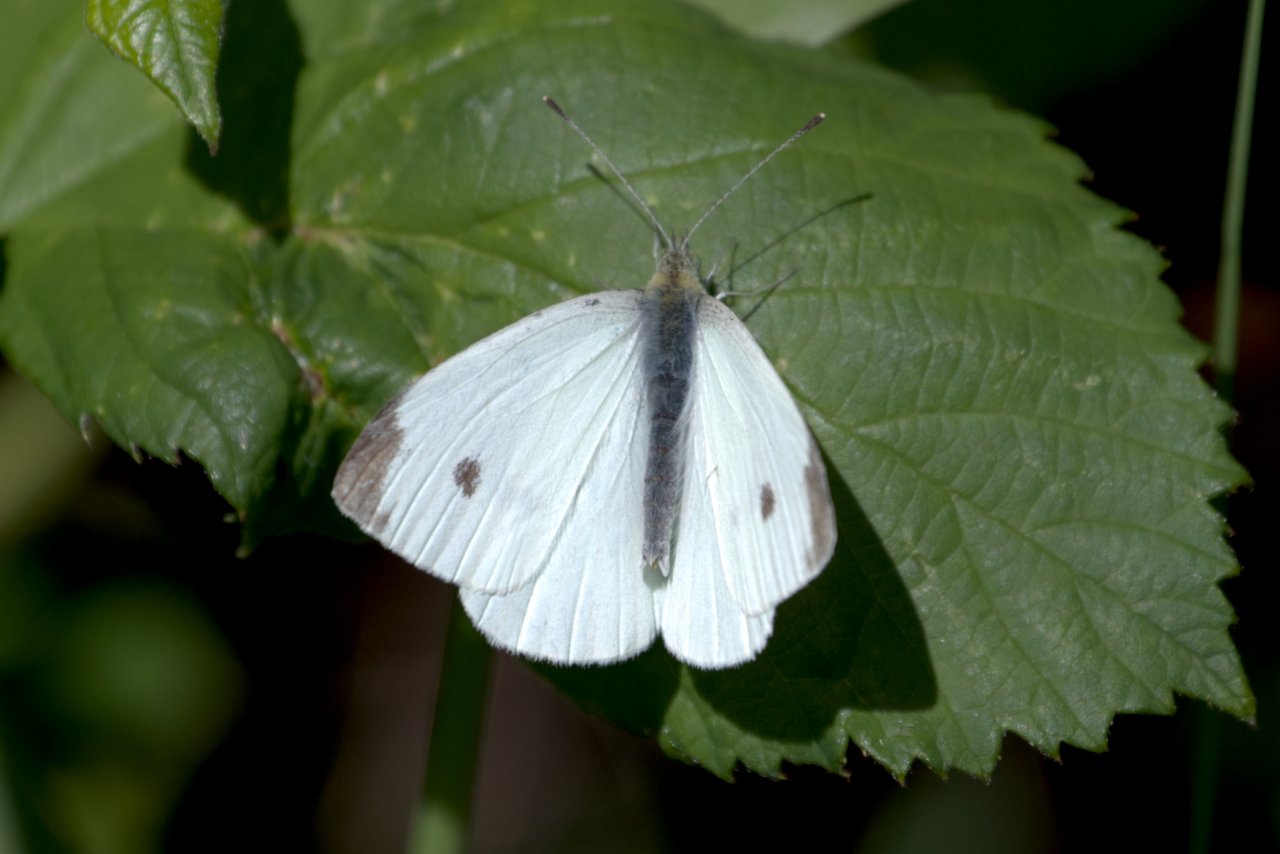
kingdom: Animalia
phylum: Arthropoda
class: Insecta
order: Lepidoptera
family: Pieridae
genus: Pieris
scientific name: Pieris rapae
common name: Cabbage White
